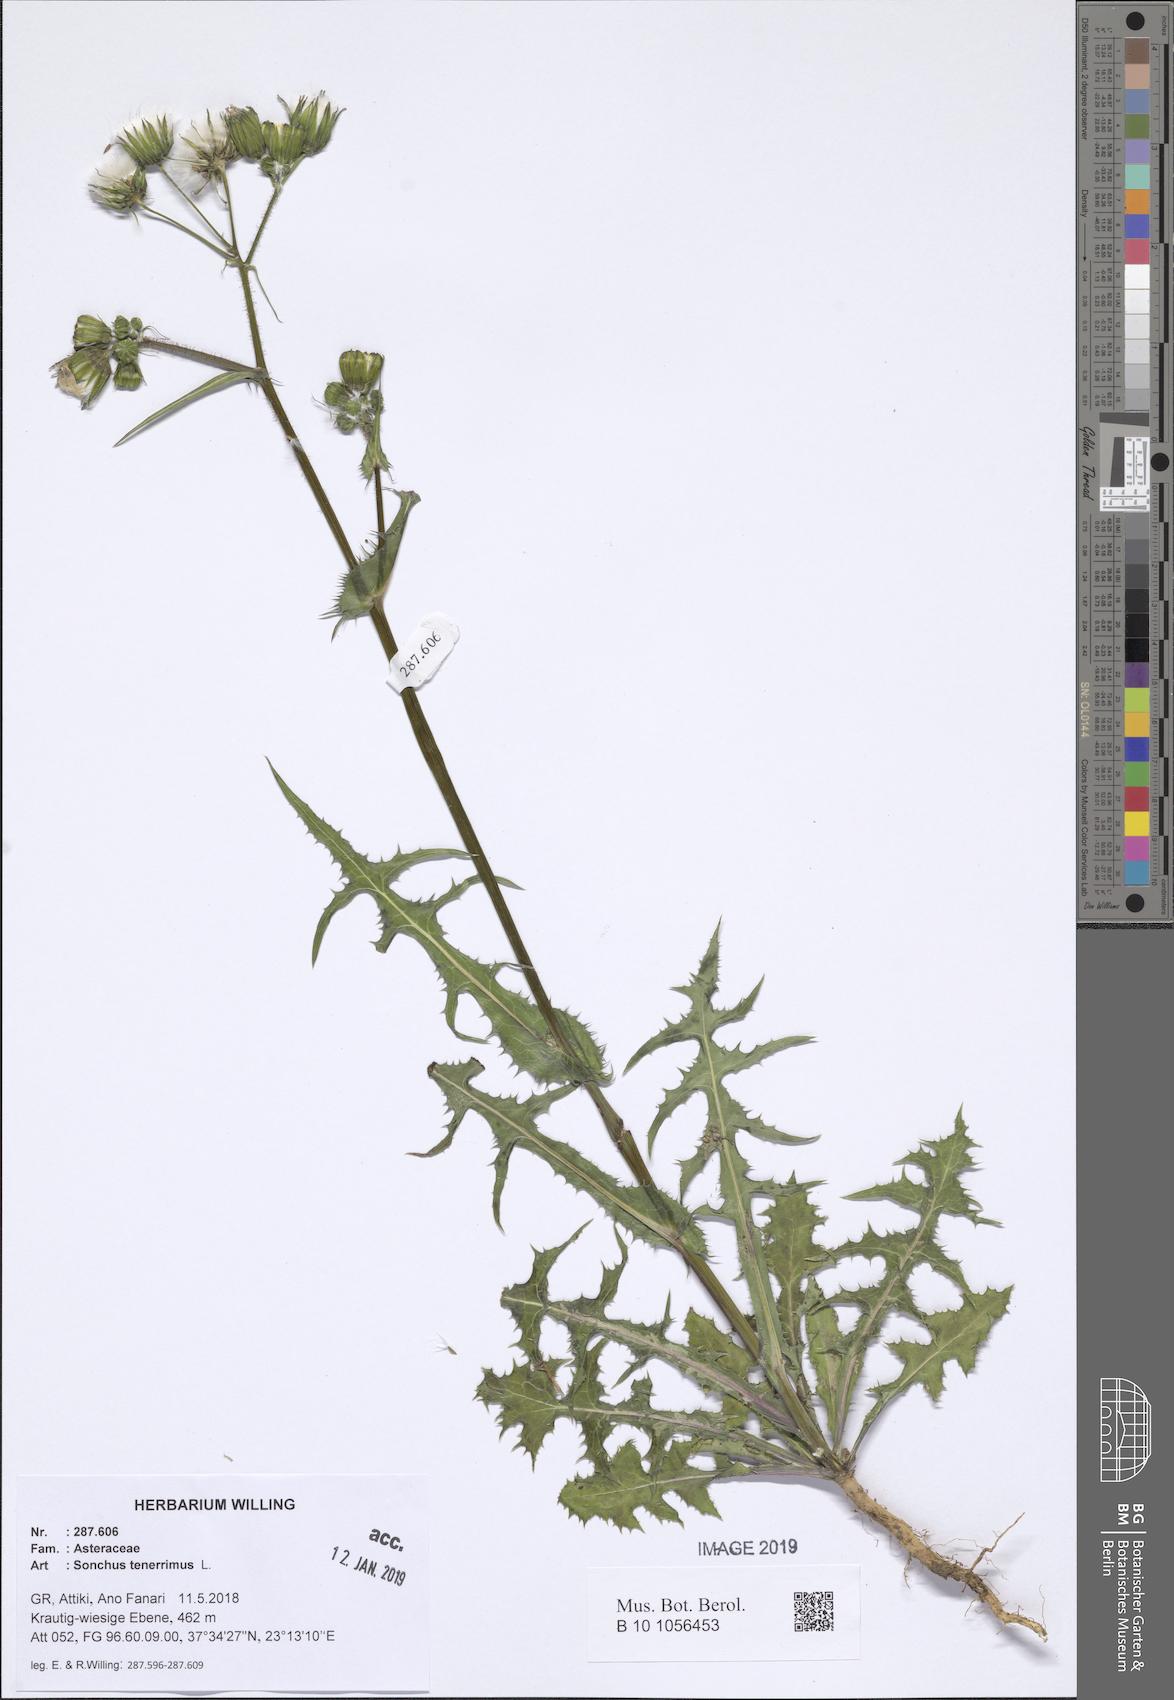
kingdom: Plantae
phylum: Tracheophyta
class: Magnoliopsida
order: Asterales
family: Asteraceae
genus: Sonchus
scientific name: Sonchus tenerrimus
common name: Clammy sowthistle
